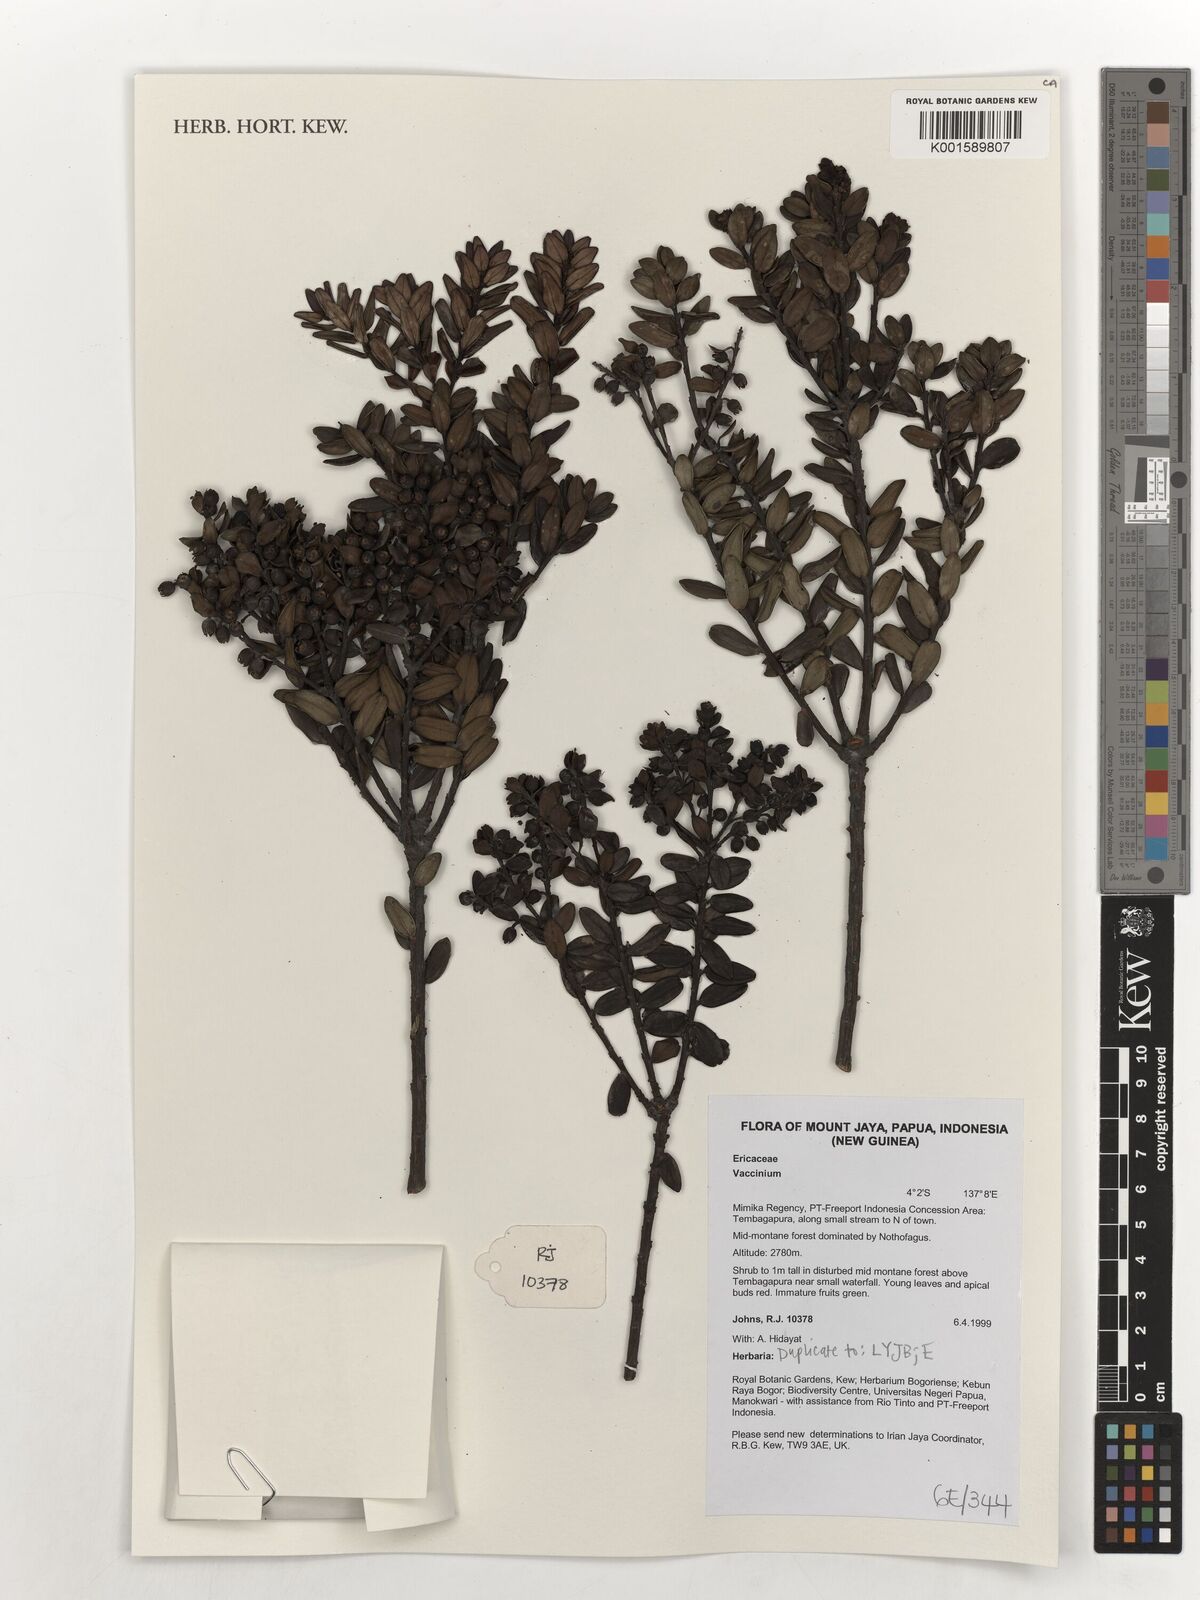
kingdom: Plantae
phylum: Tracheophyta
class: Magnoliopsida
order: Ericales
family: Ericaceae
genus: Vaccinium
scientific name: Vaccinium
